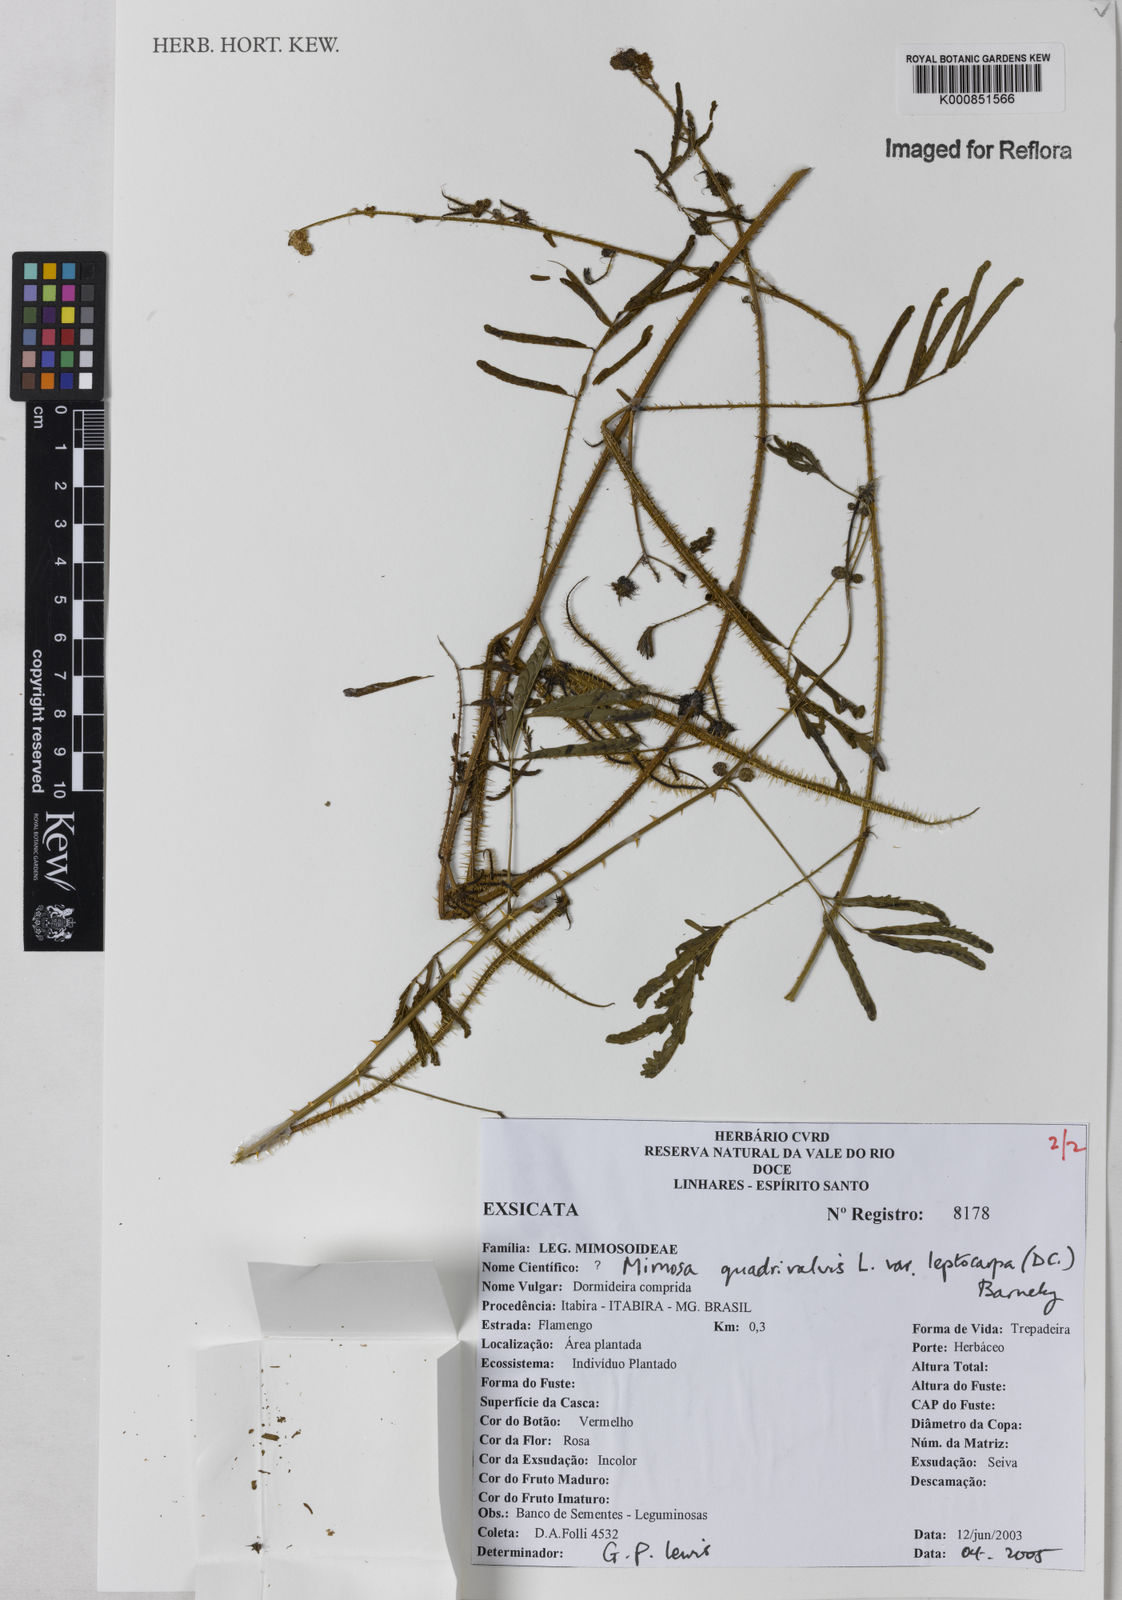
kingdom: Plantae
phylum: Tracheophyta
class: Magnoliopsida
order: Fabales
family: Fabaceae
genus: Mimosa
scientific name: Mimosa candollei
